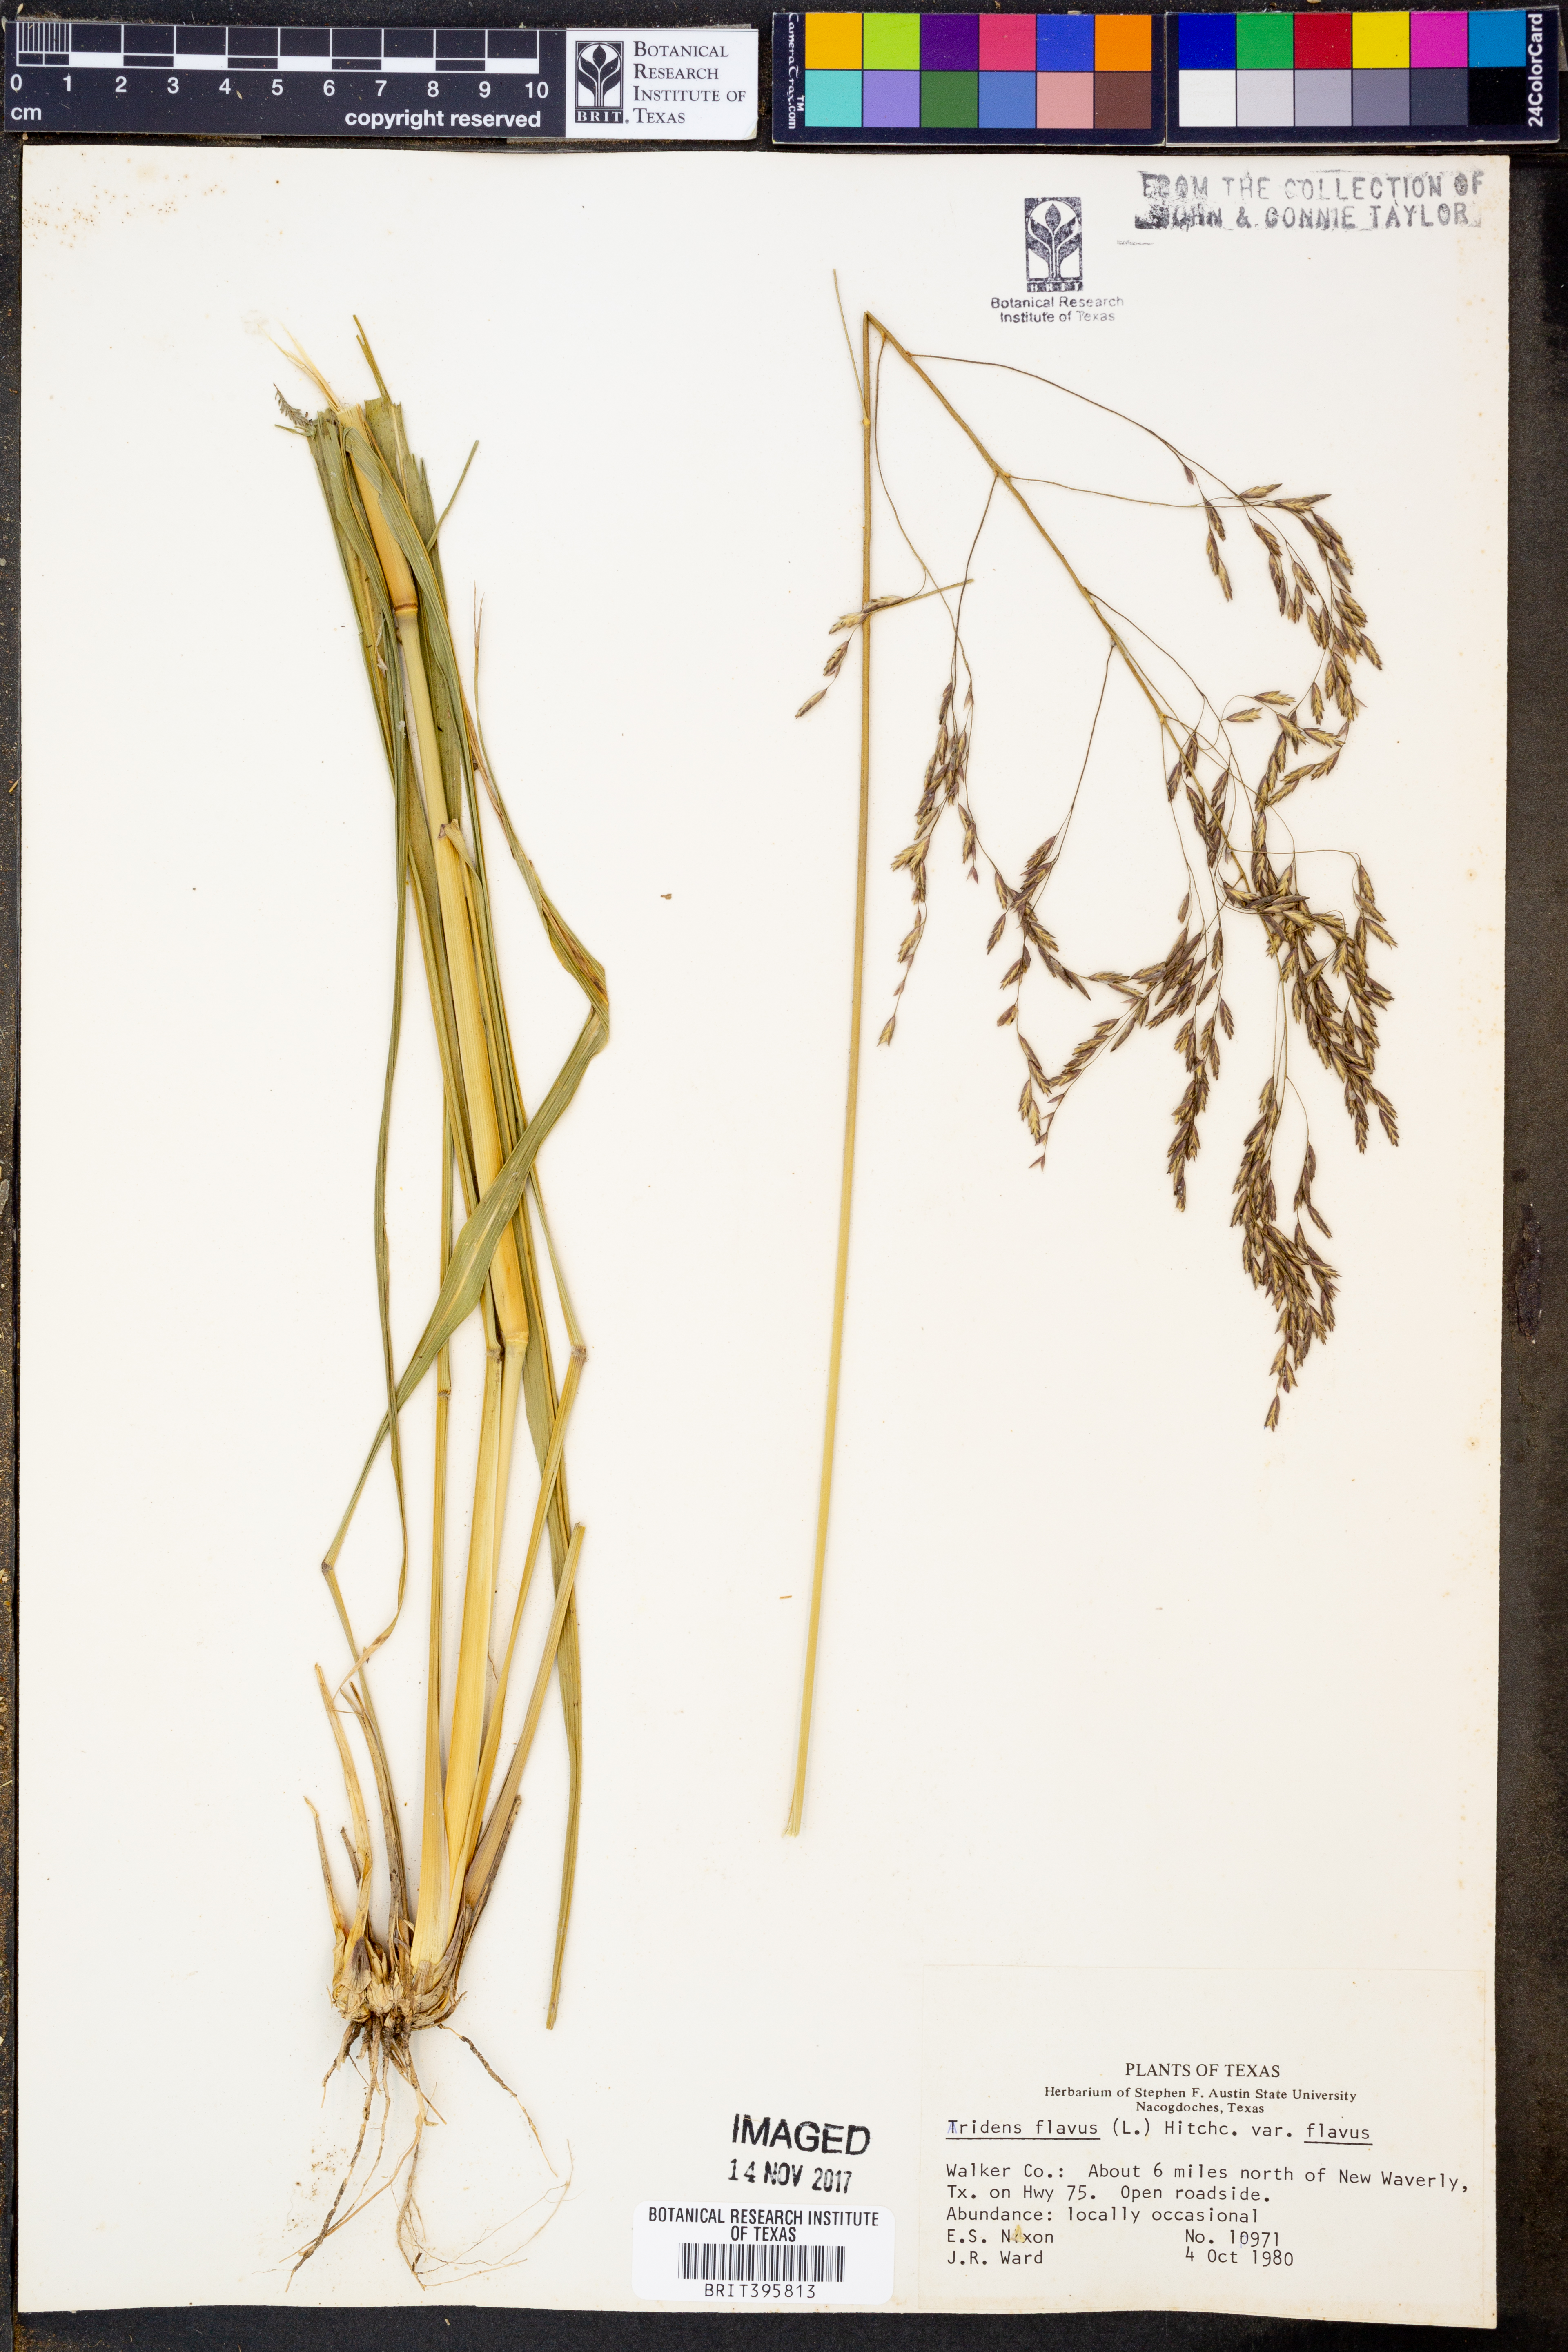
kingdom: Plantae
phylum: Tracheophyta
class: Liliopsida
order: Poales
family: Poaceae
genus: Tridens
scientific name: Tridens flavus
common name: Purpletop
